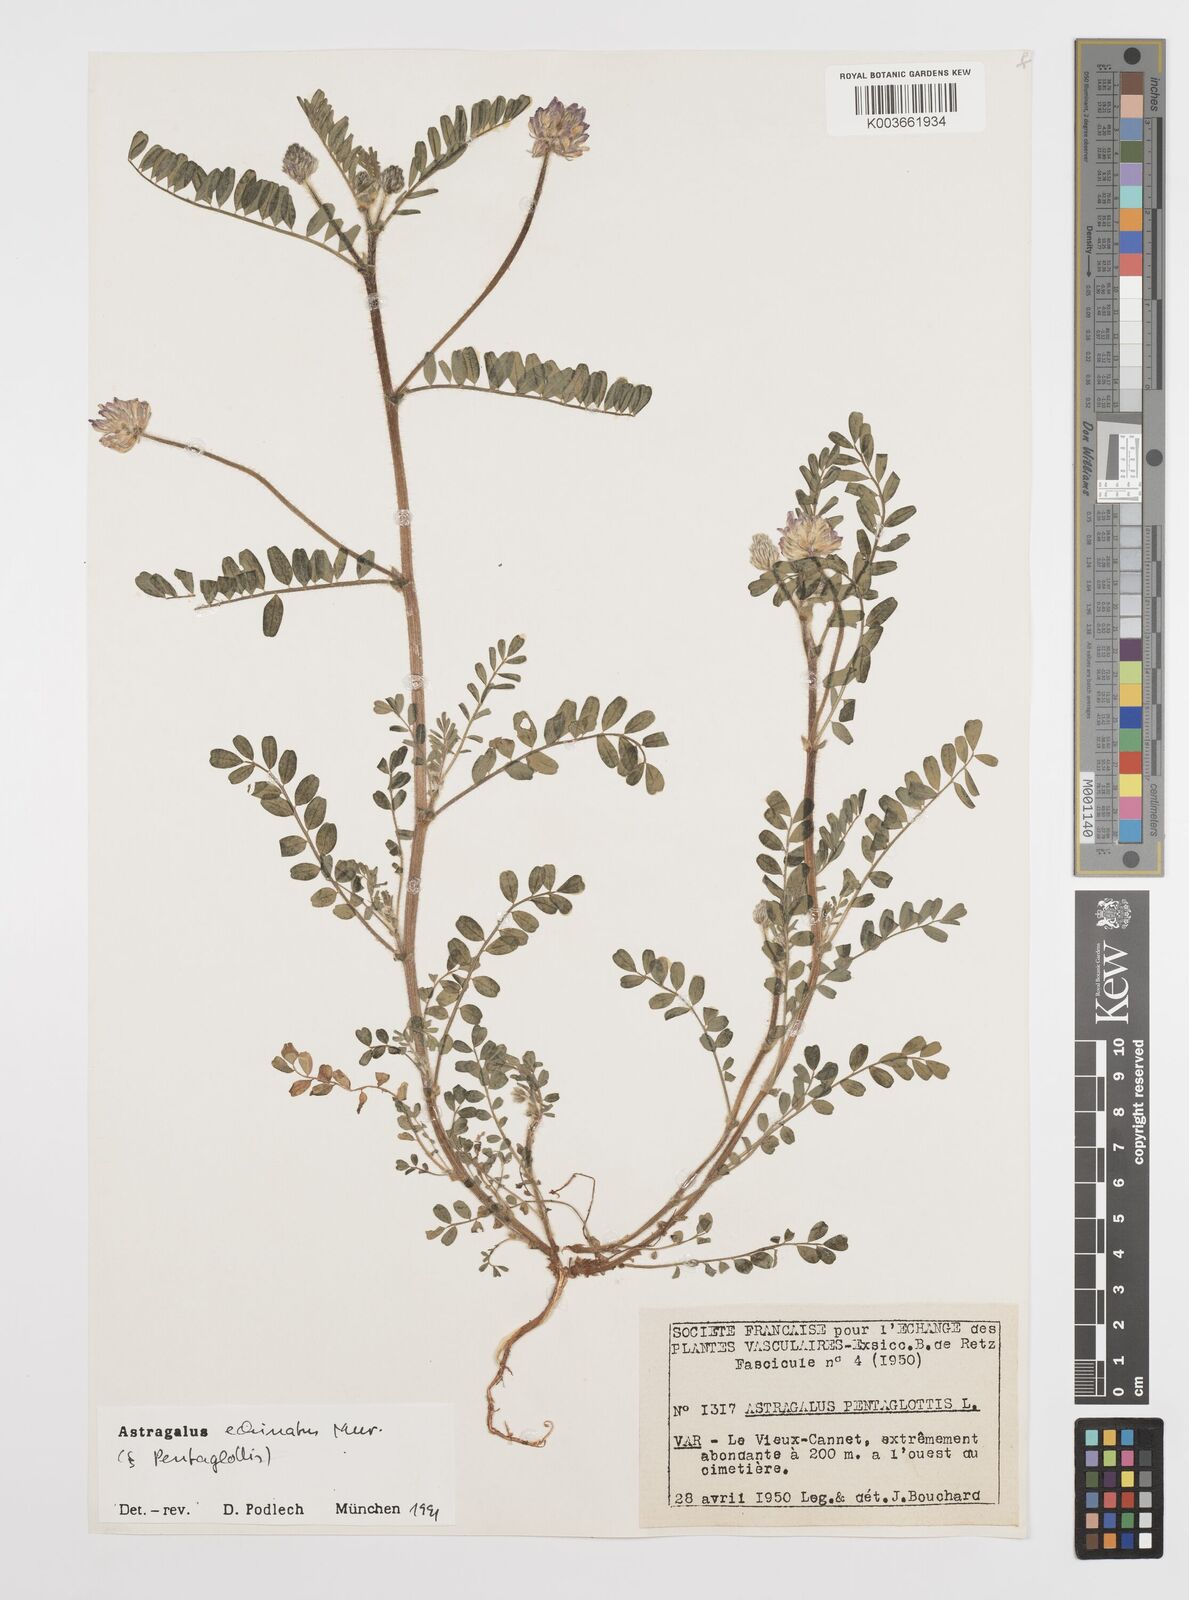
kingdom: Plantae
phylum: Tracheophyta
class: Magnoliopsida
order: Fabales
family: Fabaceae
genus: Astragalus
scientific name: Astragalus echinatus
